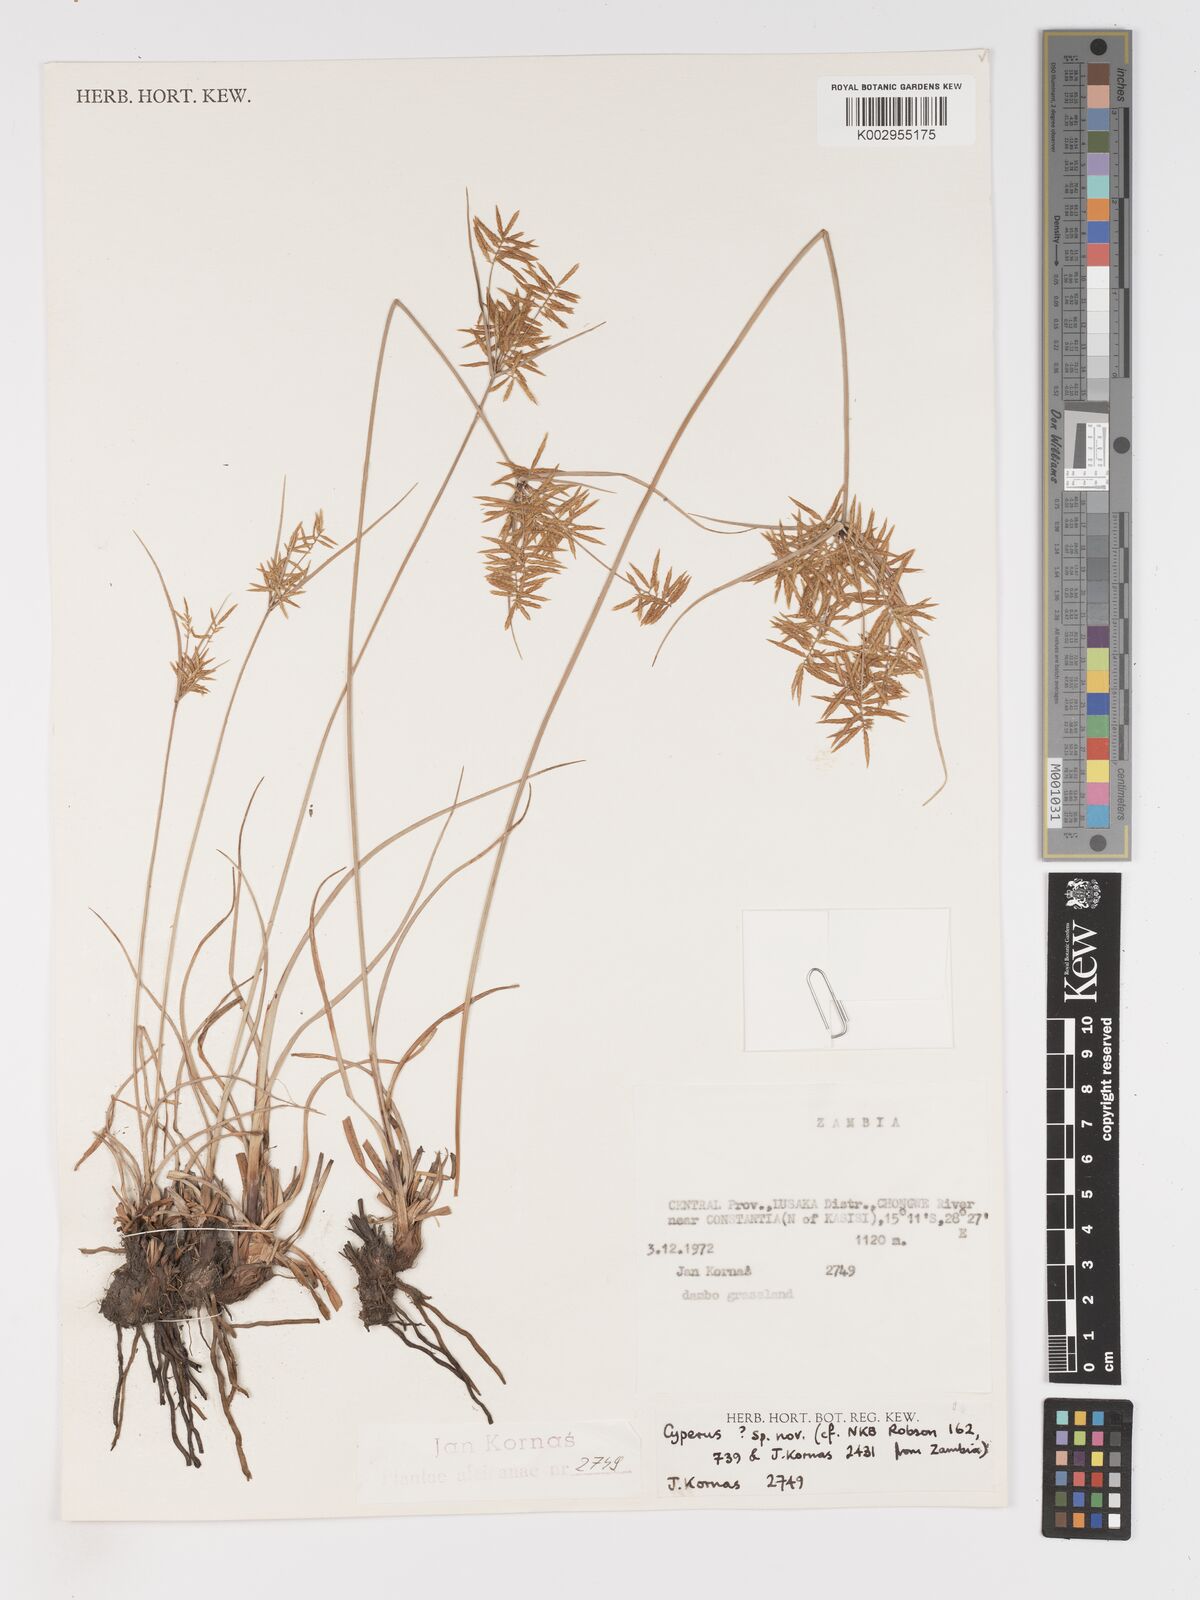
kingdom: Plantae
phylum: Tracheophyta
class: Liliopsida
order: Poales
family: Cyperaceae
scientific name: Cyperaceae
